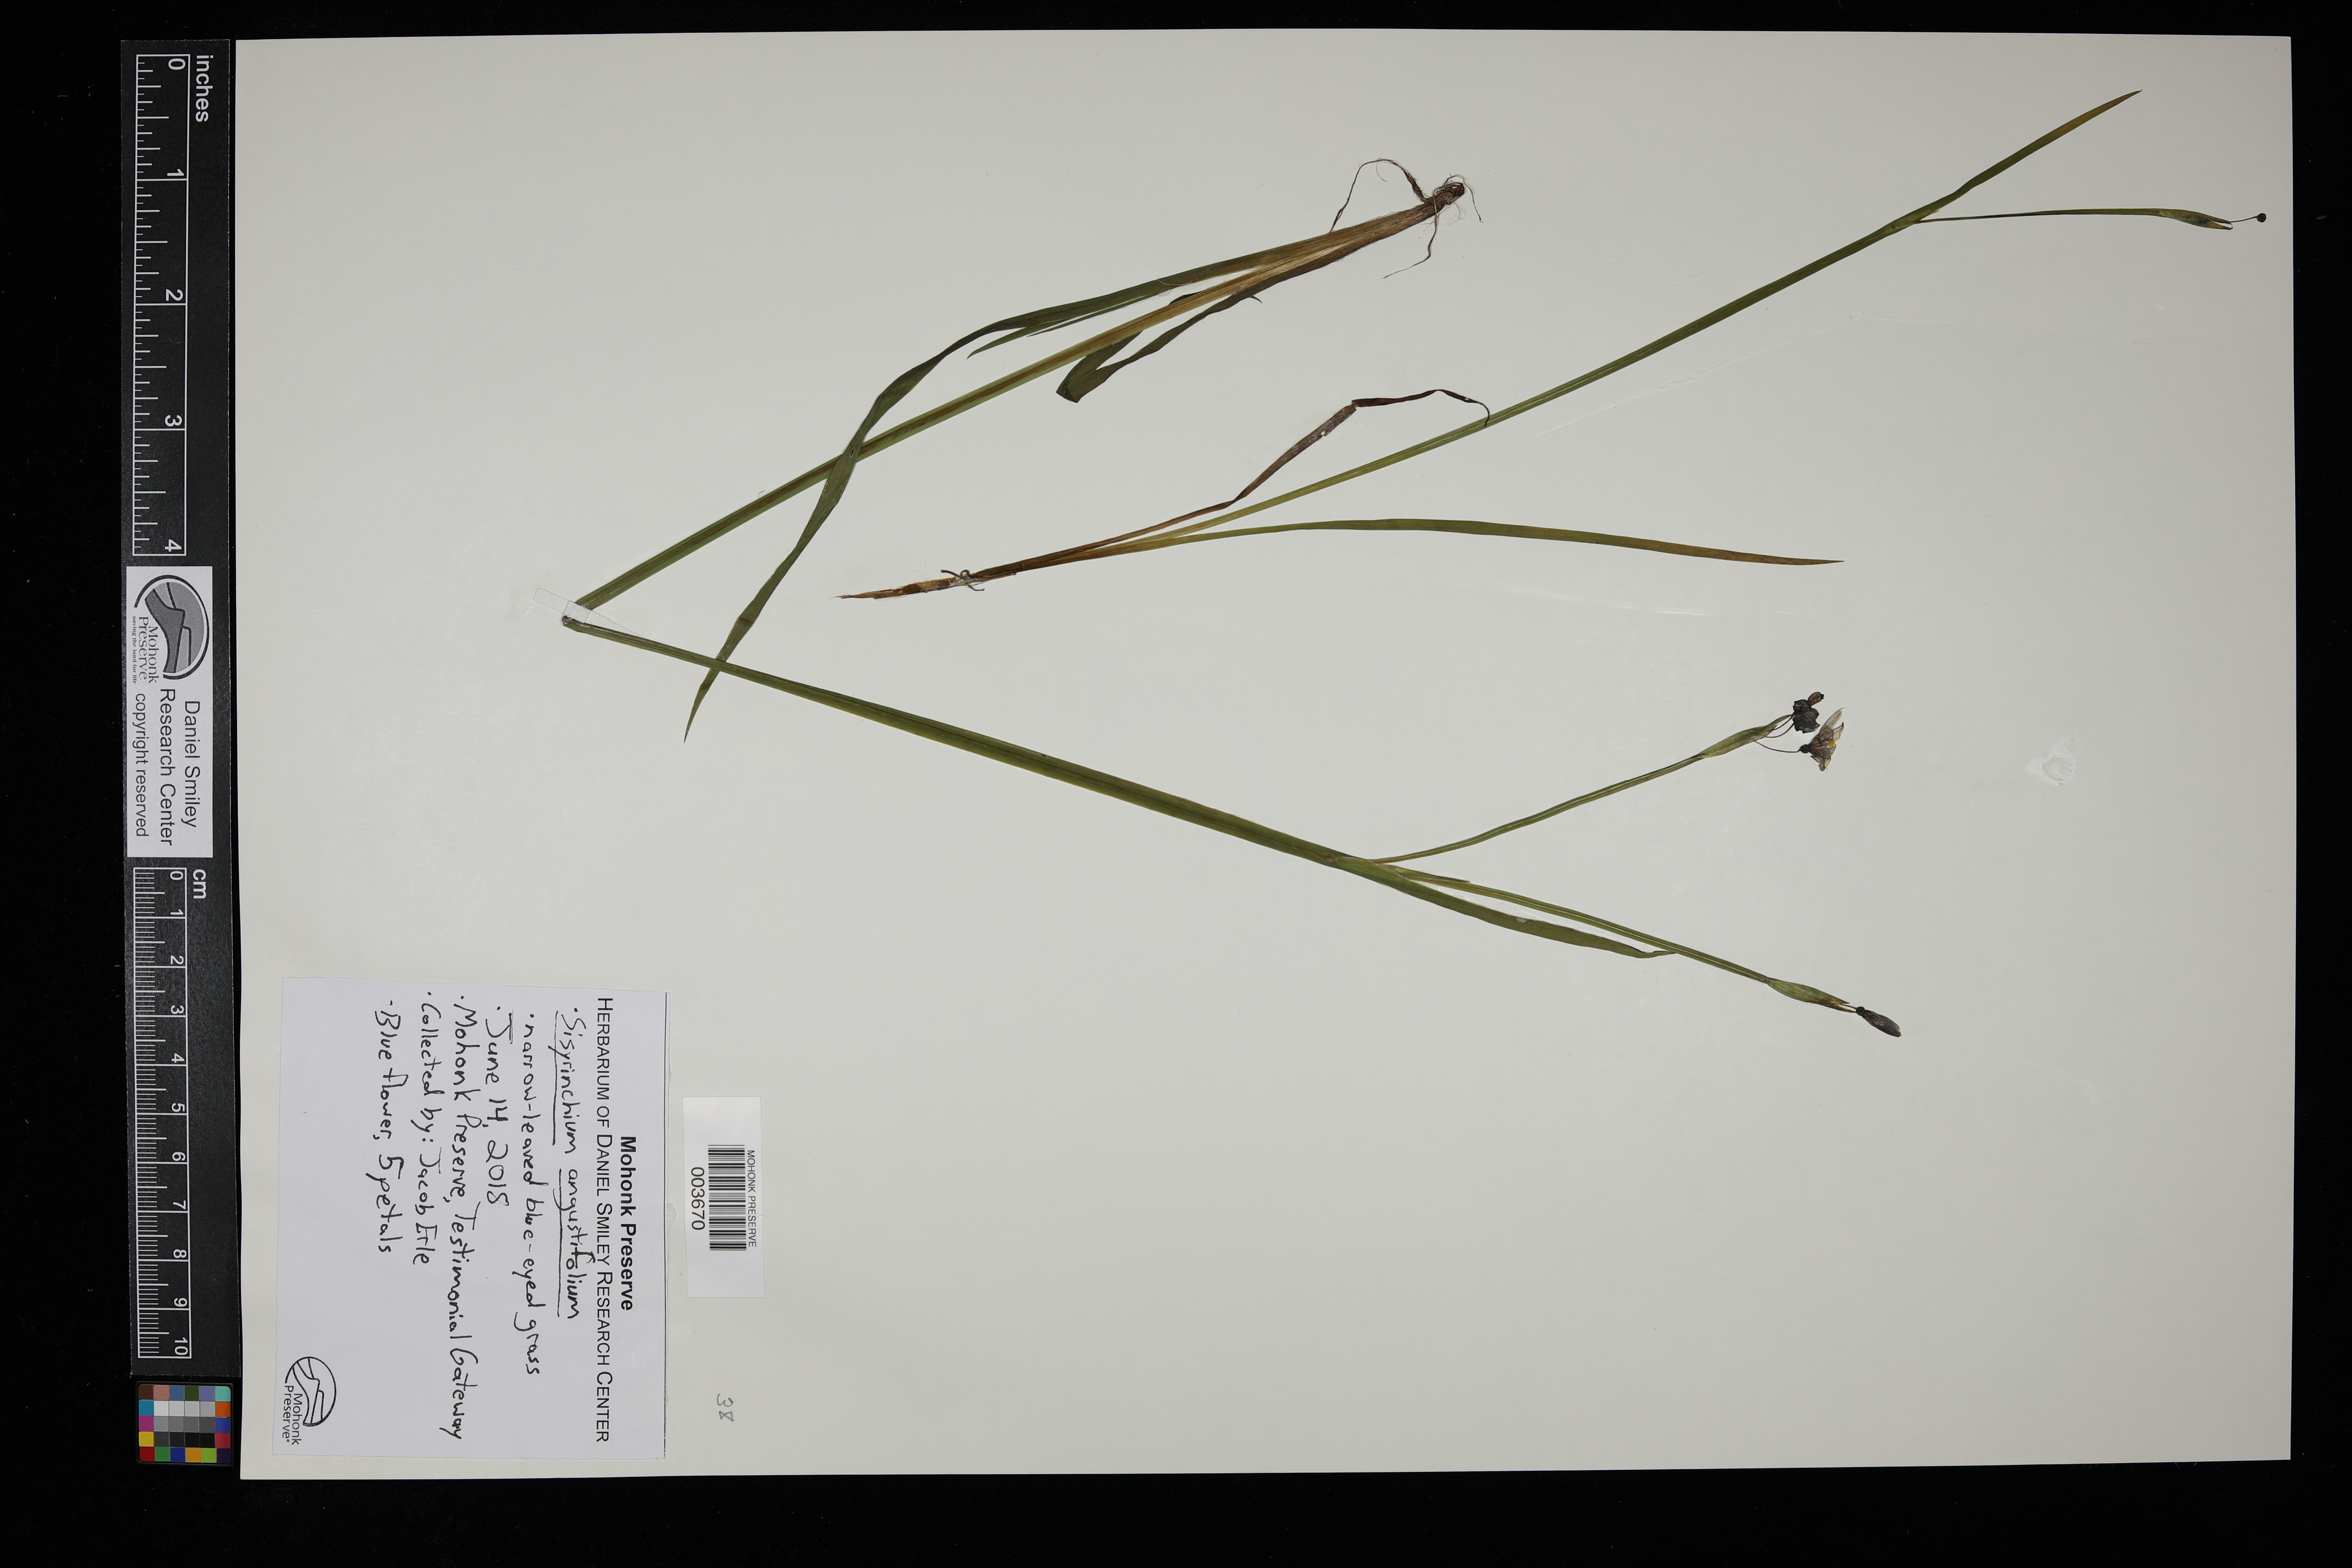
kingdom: Plantae
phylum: Tracheophyta
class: Liliopsida
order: Asparagales
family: Iridaceae
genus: Sisyrinchium
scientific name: Sisyrinchium angustifolium
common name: Narrow-leaf blue-eyed-grass
